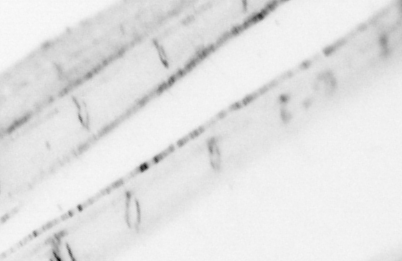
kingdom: Animalia
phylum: Chordata
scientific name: Chordata
